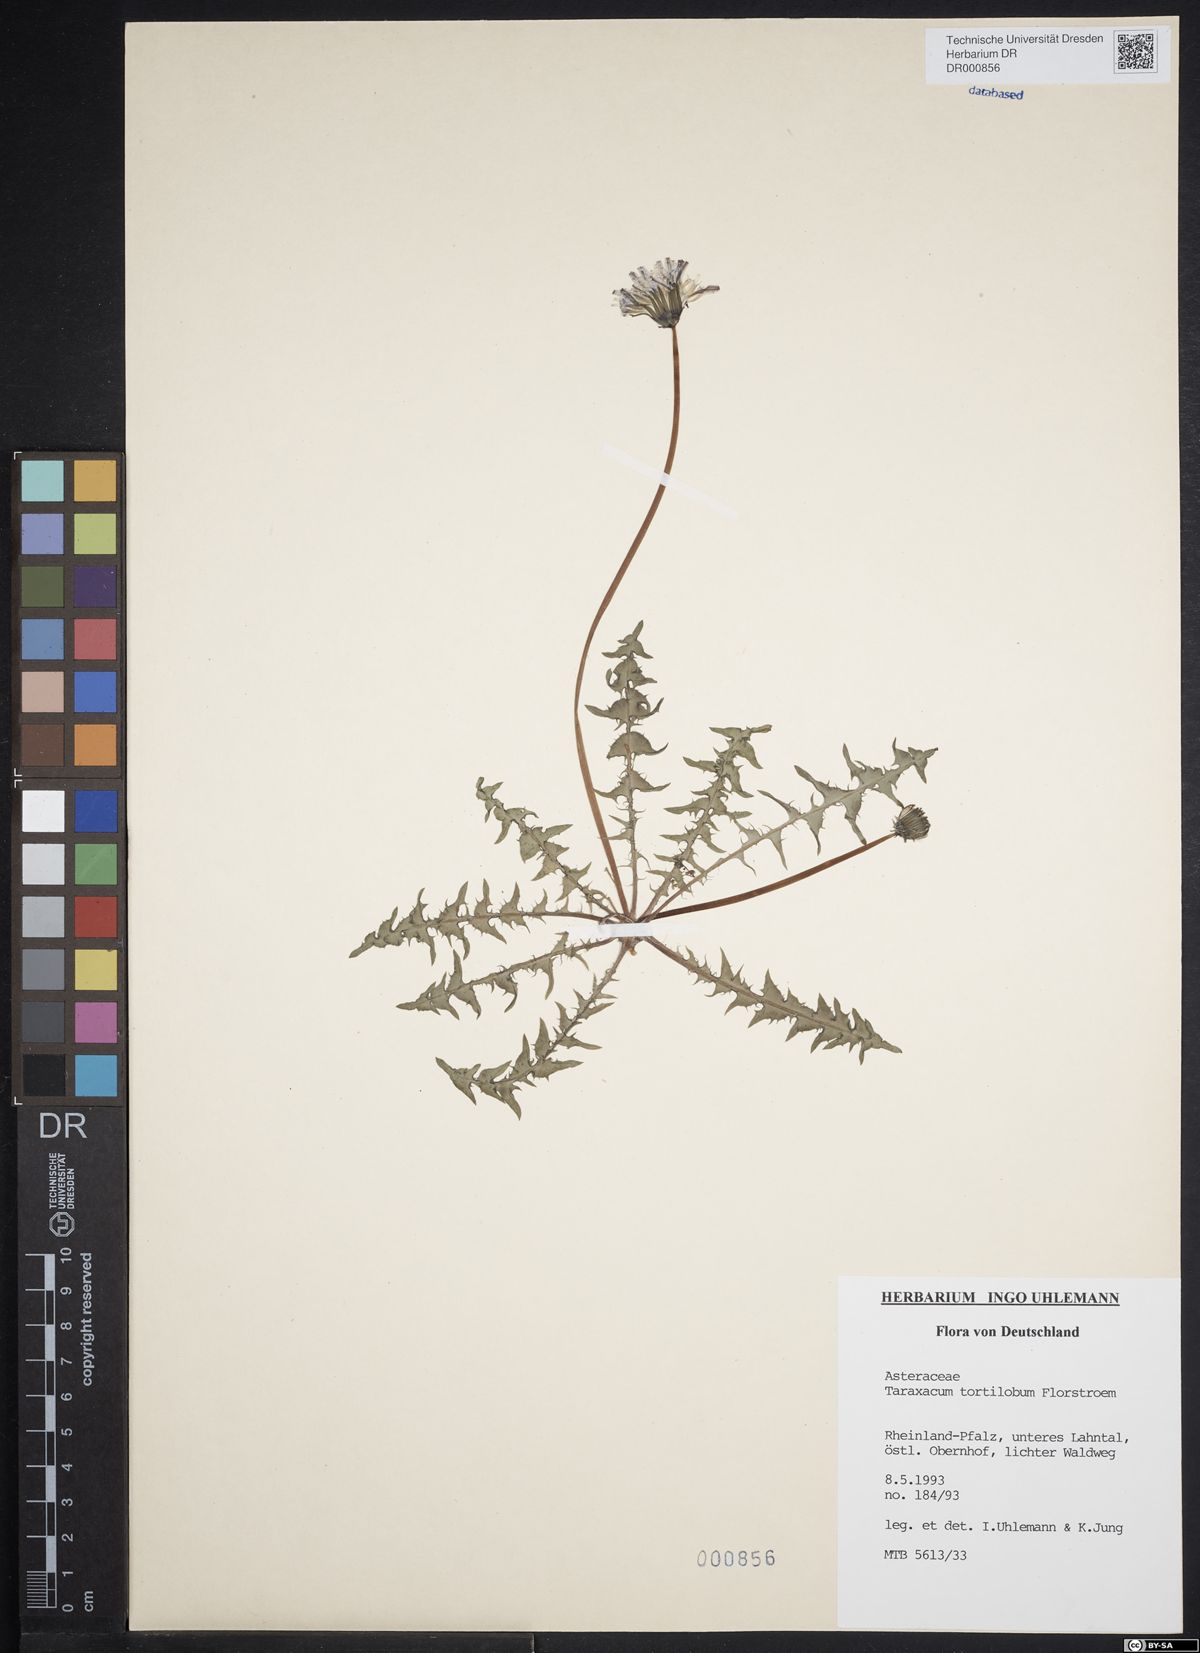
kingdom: Plantae
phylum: Tracheophyta
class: Magnoliopsida
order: Asterales
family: Asteraceae
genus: Taraxacum
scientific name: Taraxacum tortilobum
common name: Twisted-lobed dandelion
